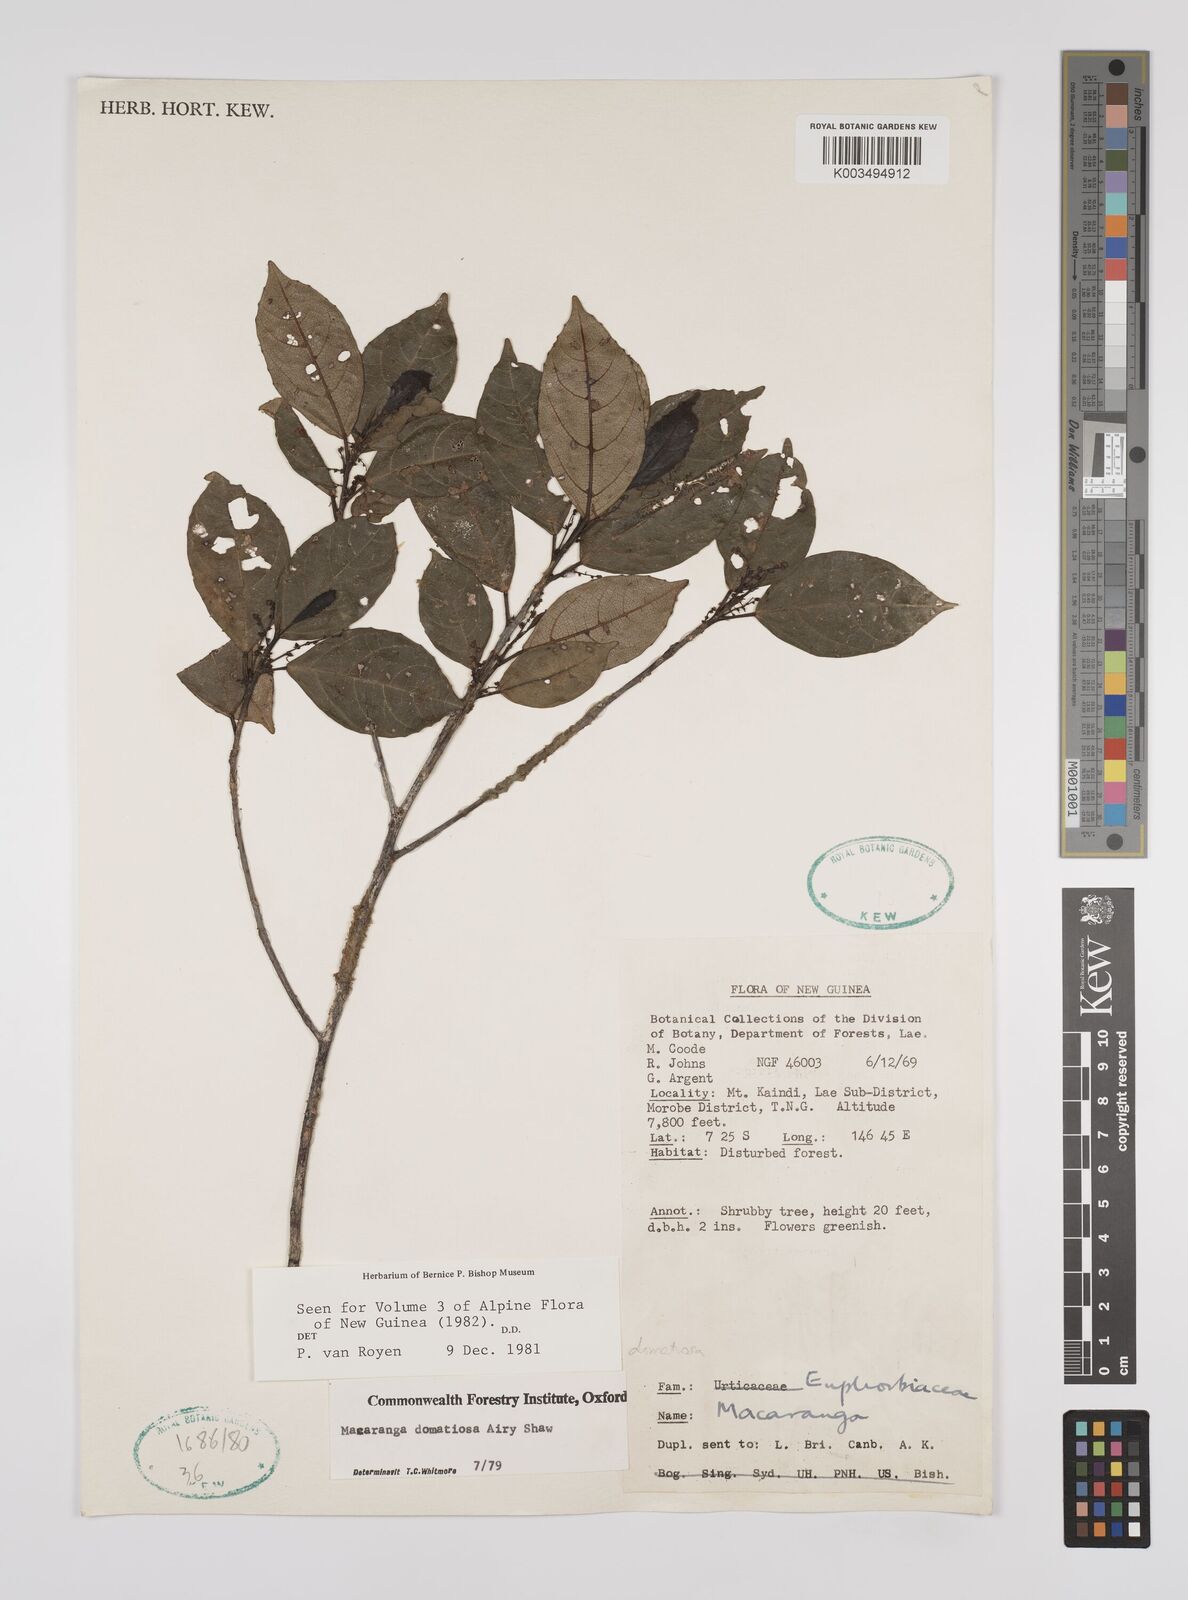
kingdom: Plantae
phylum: Tracheophyta
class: Magnoliopsida
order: Malpighiales
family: Euphorbiaceae
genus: Macaranga
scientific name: Macaranga domatiosa
